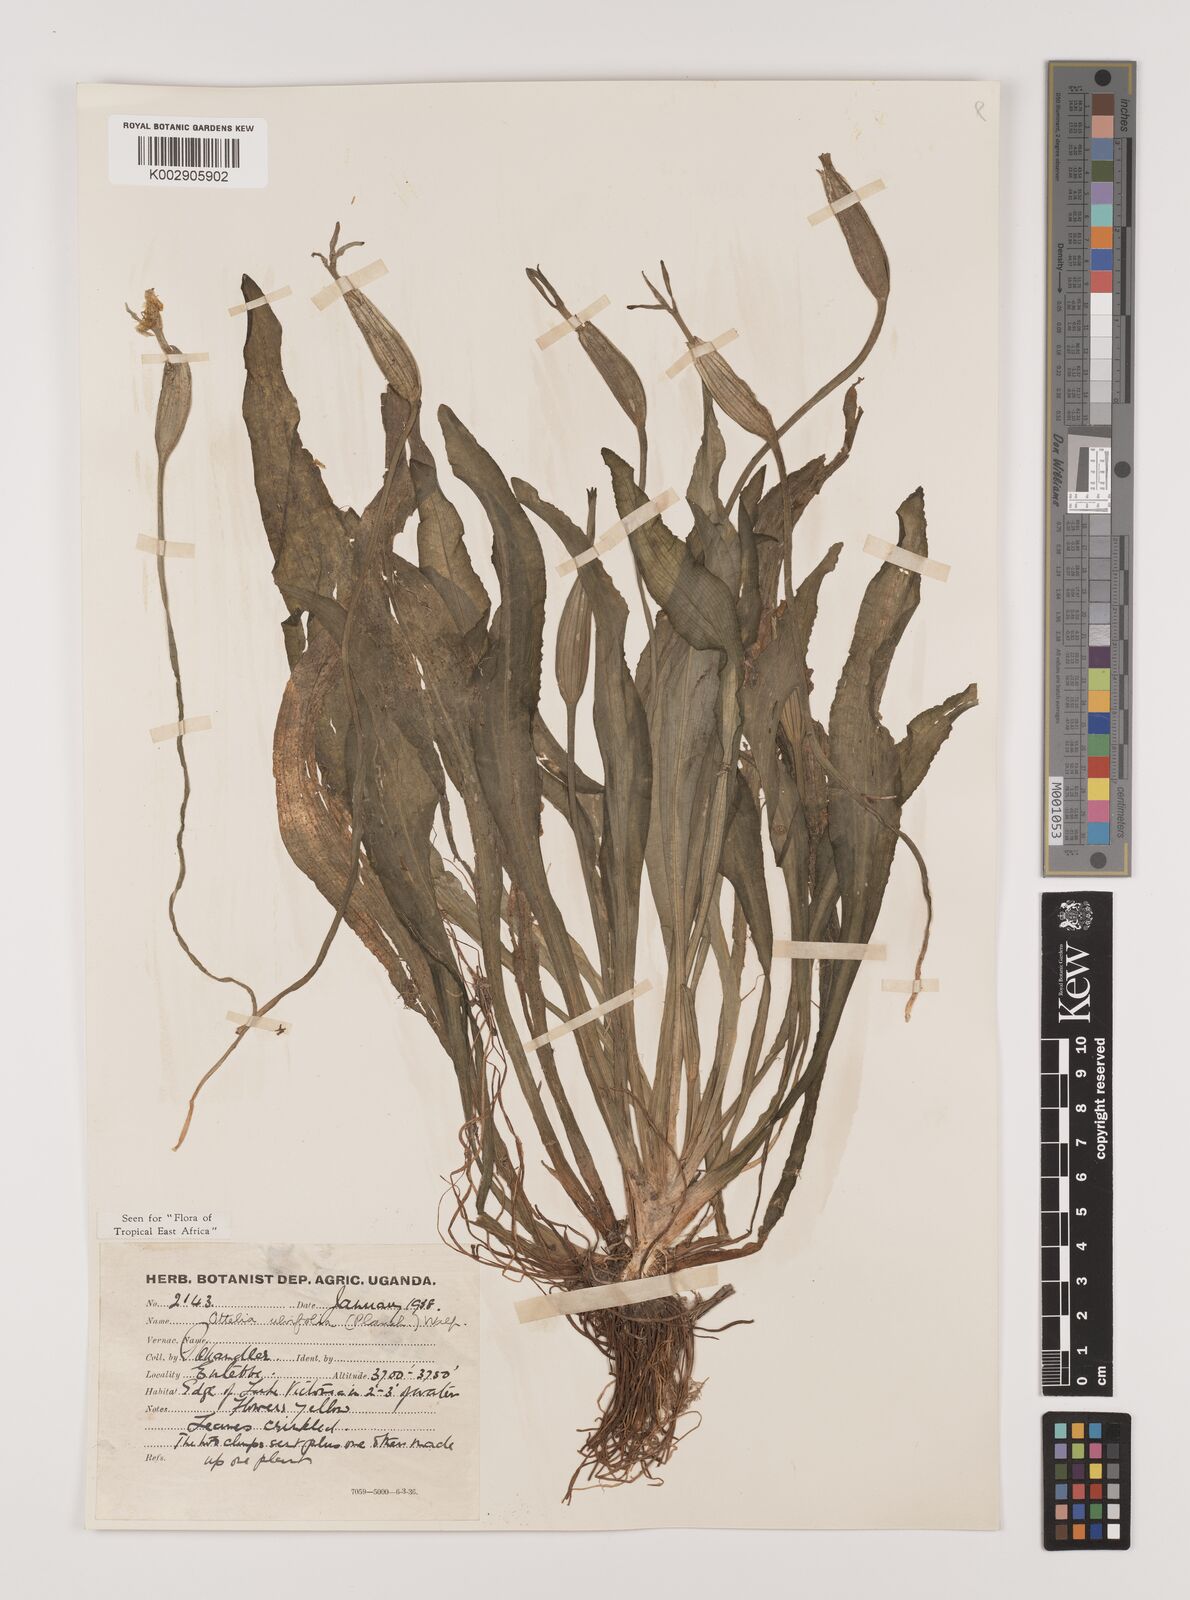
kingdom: Plantae
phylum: Tracheophyta
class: Liliopsida
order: Alismatales
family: Hydrocharitaceae
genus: Ottelia
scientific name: Ottelia ulvifolia
